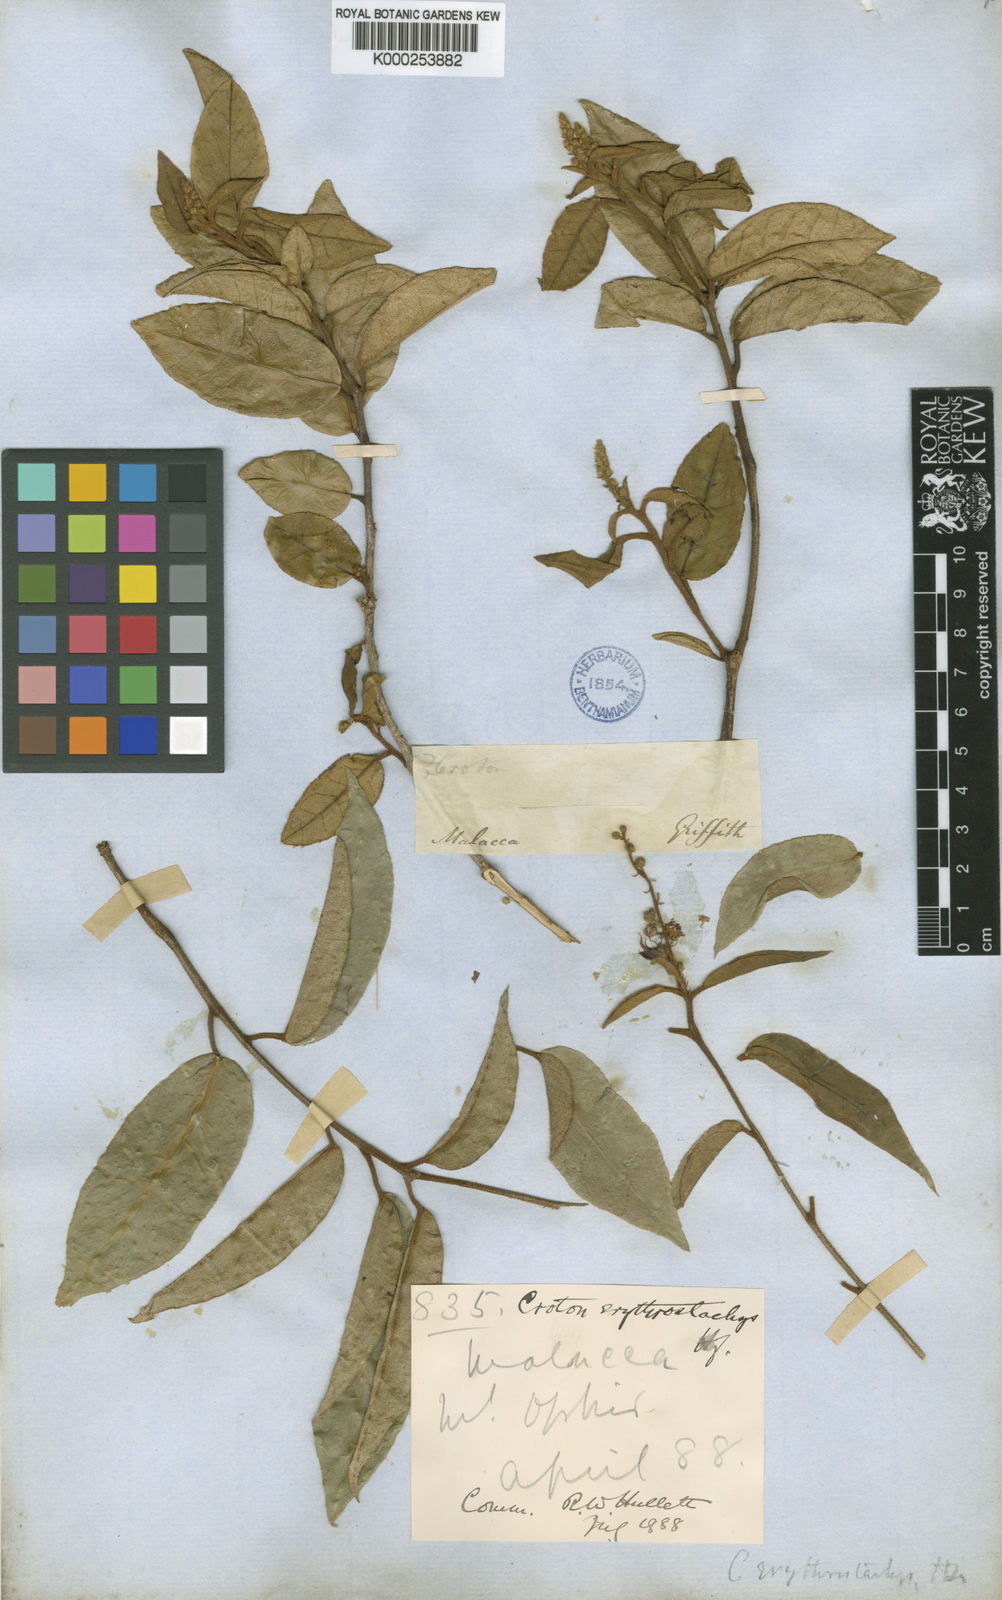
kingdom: Plantae
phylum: Tracheophyta
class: Magnoliopsida
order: Malpighiales
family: Euphorbiaceae
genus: Croton
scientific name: Croton erythrostachys
